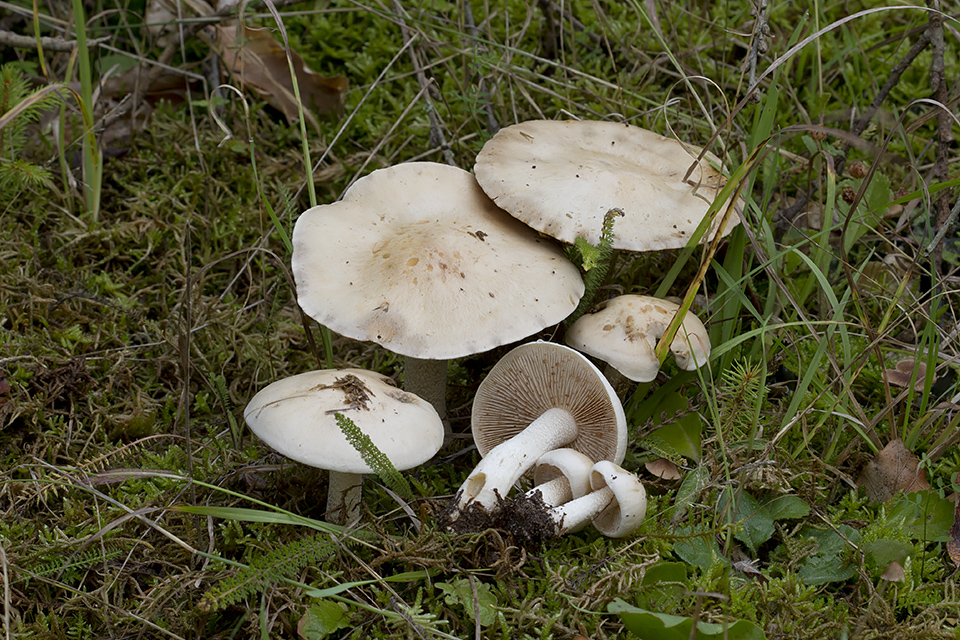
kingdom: Fungi
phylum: Basidiomycota
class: Agaricomycetes
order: Agaricales
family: Hymenogastraceae
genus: Hebeloma
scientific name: Hebeloma
